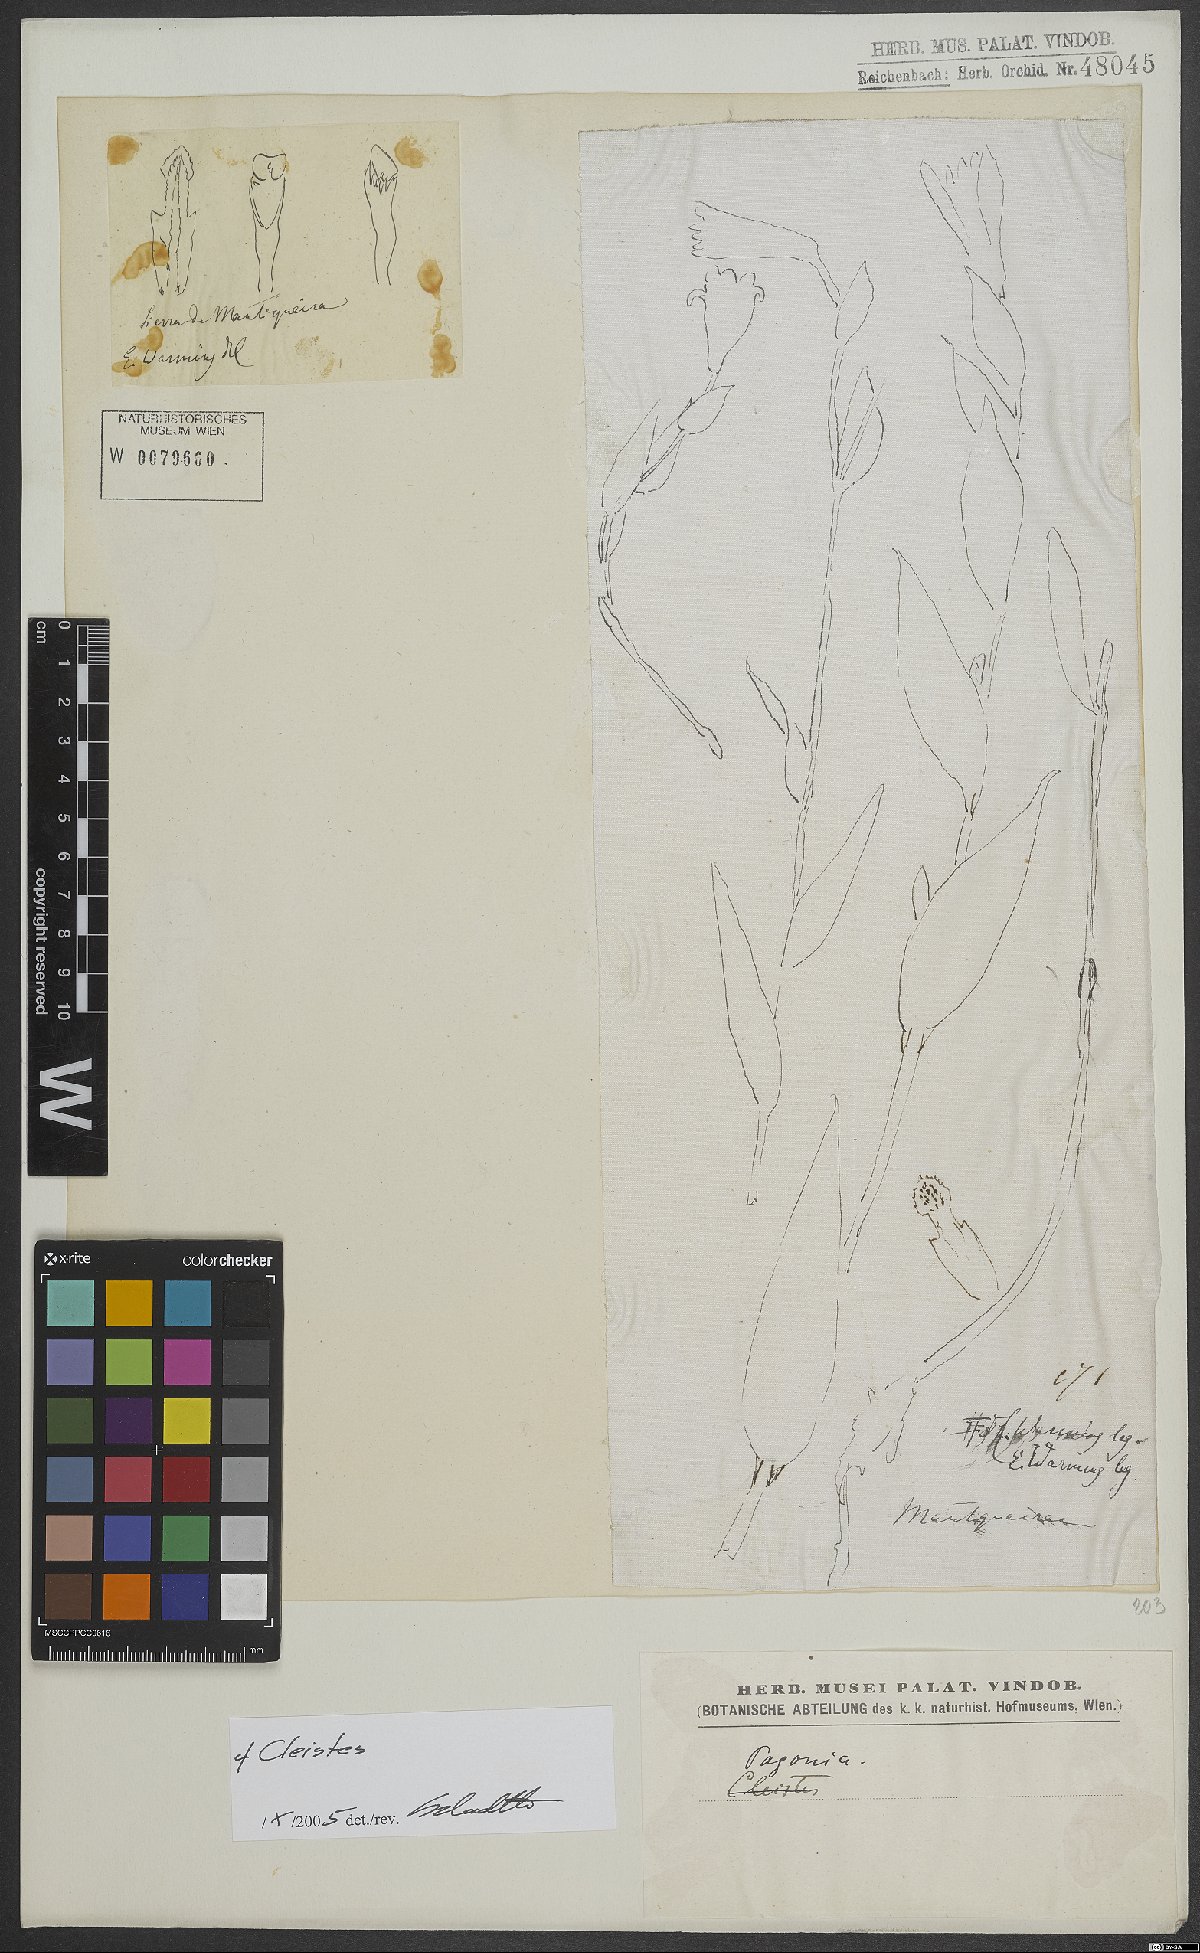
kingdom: Plantae
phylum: Tracheophyta
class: Liliopsida
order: Asparagales
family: Orchidaceae
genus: Cleistes
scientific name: Cleistes
